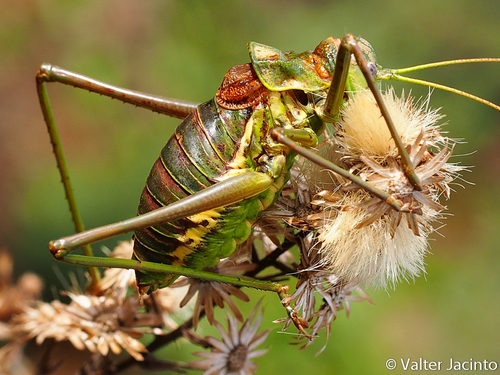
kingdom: Animalia
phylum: Arthropoda
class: Insecta
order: Orthoptera
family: Tettigoniidae
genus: Steropleurus
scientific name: Steropleurus pseudolus
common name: Pseudolus' saddle bush-cricket
